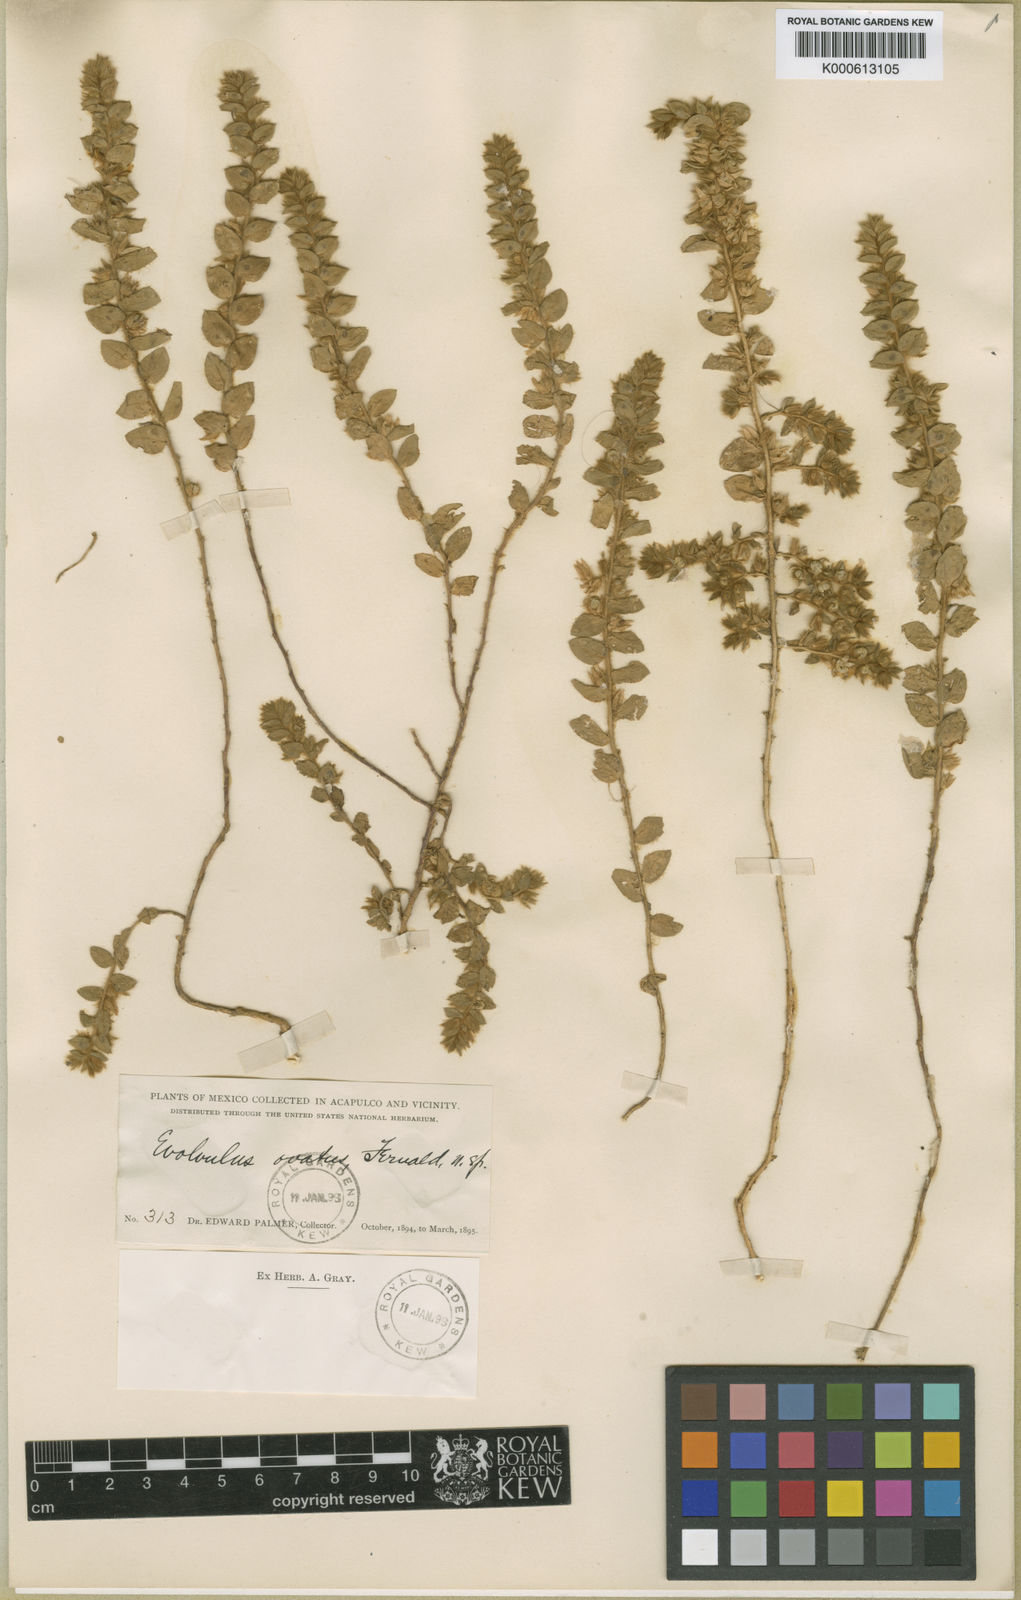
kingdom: Plantae
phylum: Tracheophyta
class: Magnoliopsida
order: Solanales
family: Convolvulaceae
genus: Evolvulus
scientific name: Evolvulus ovatus
